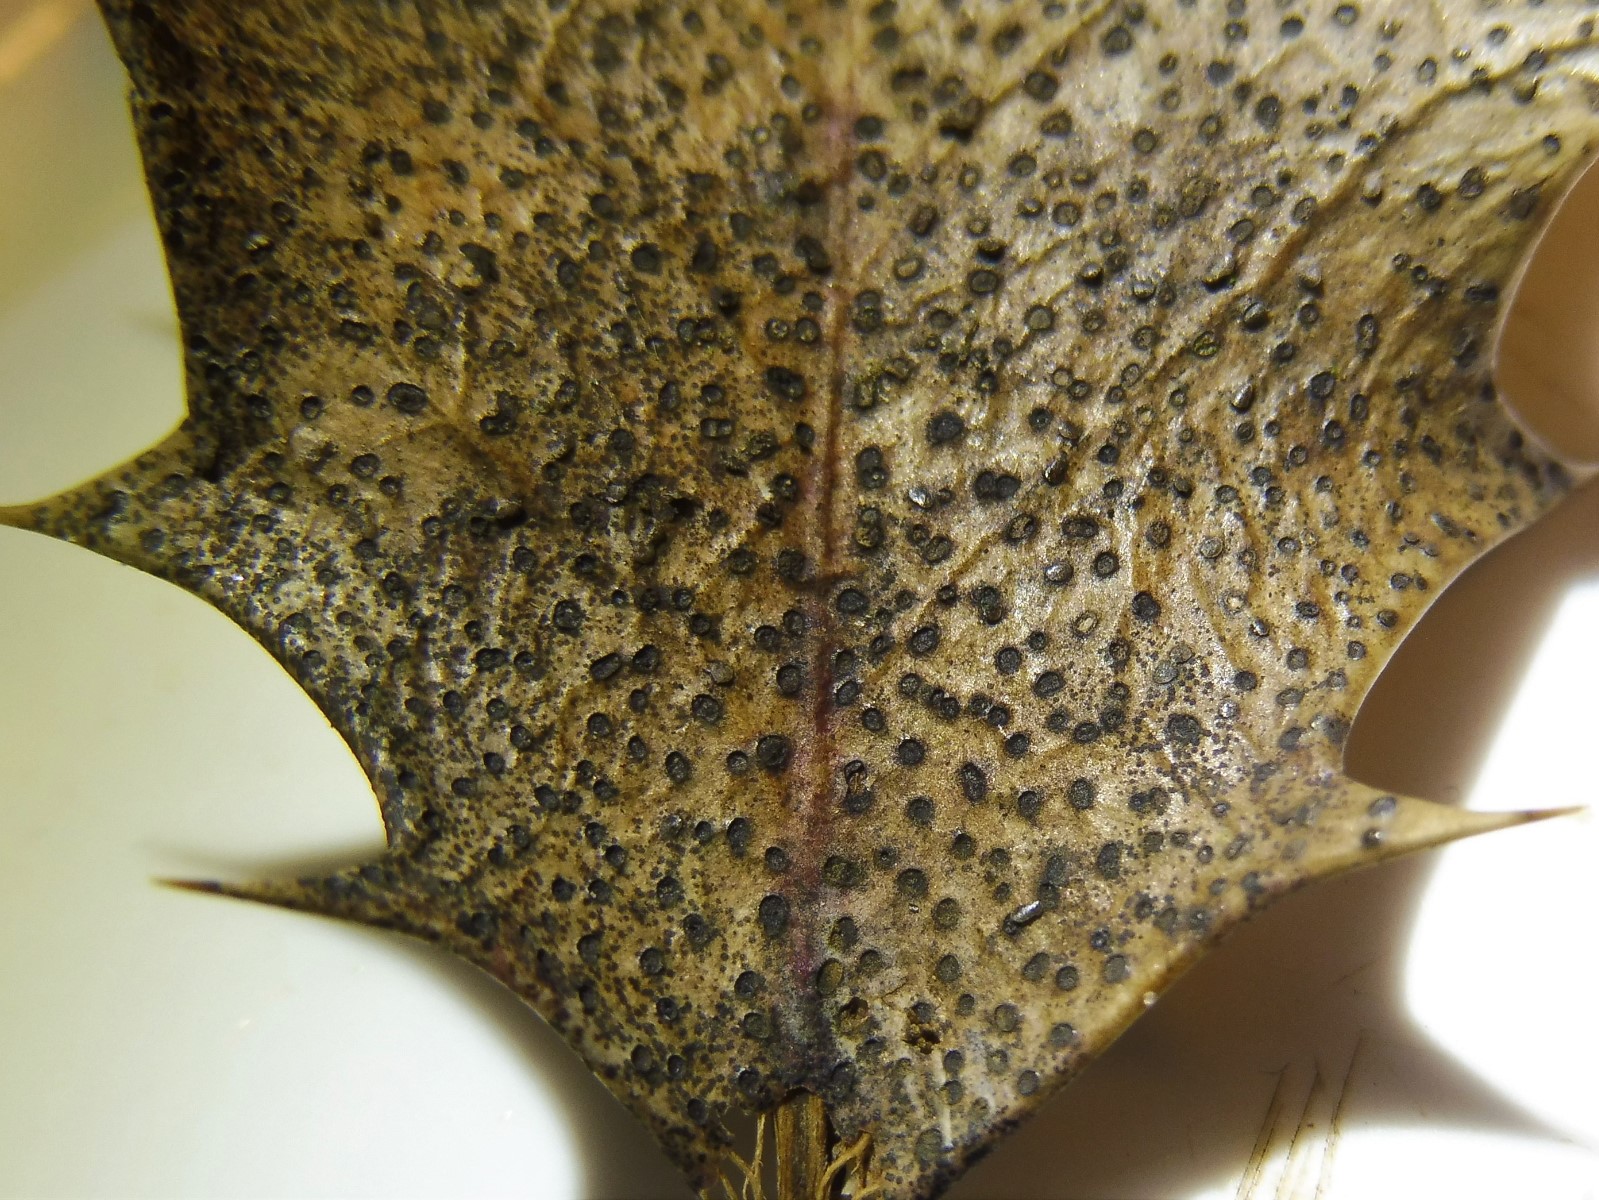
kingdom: Fungi
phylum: Ascomycota
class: Leotiomycetes
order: Helotiales
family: Cenangiaceae
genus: Trochila
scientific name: Trochila ilicina
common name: kristtorn-lågskive
